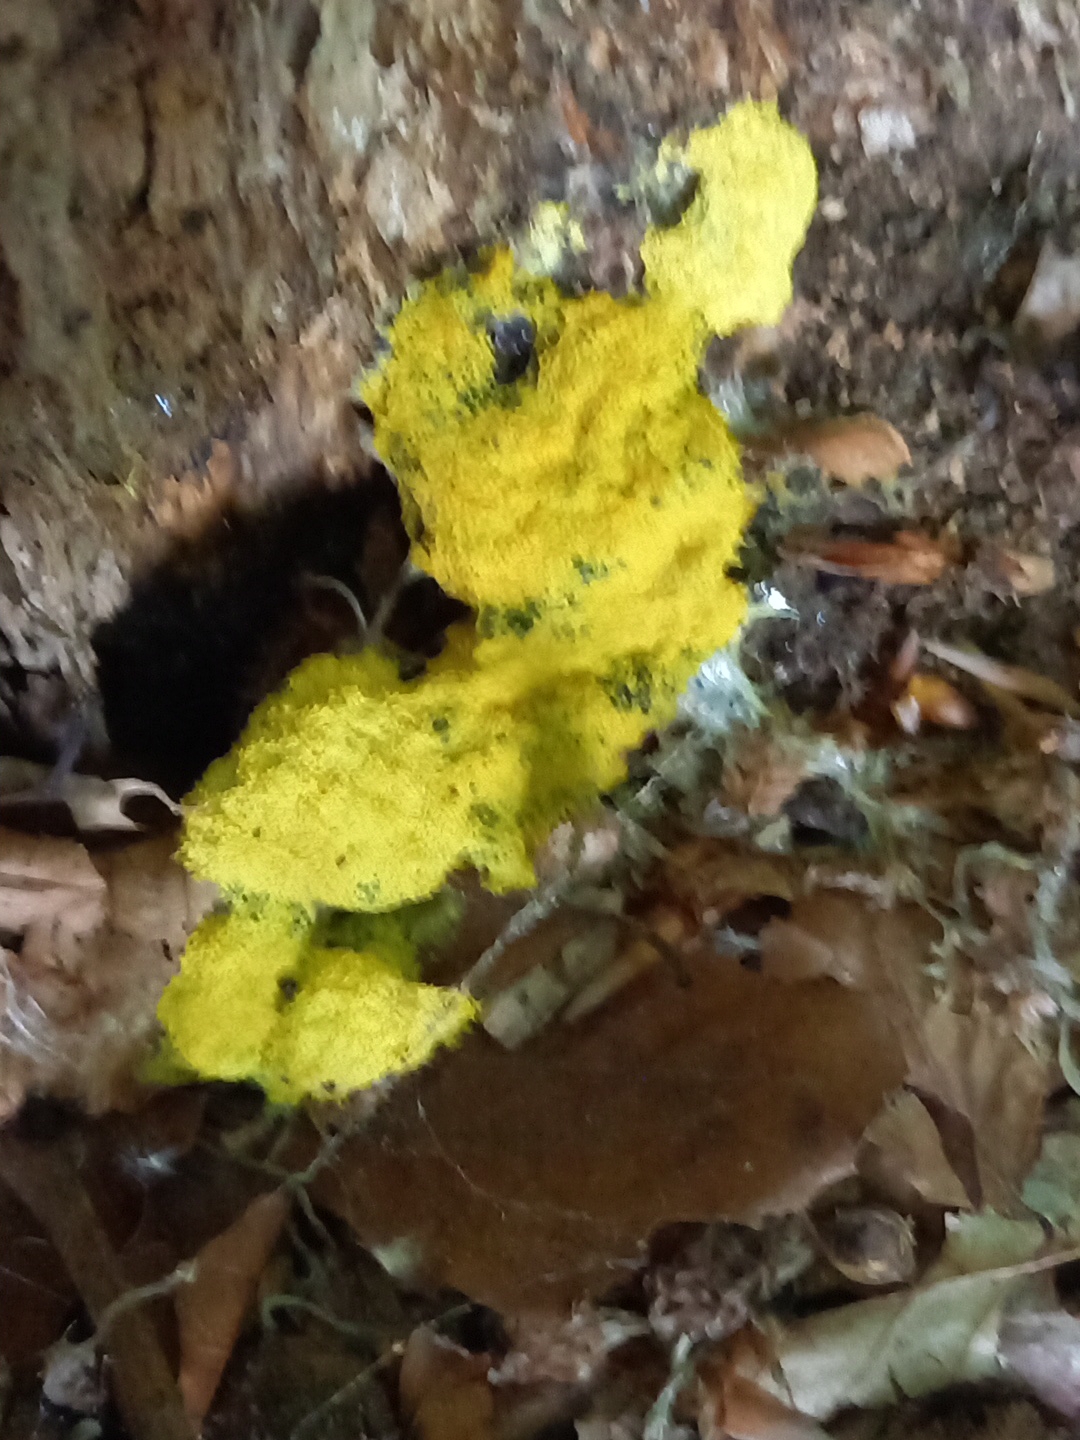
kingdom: Protozoa
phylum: Mycetozoa
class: Myxomycetes
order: Physarales
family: Physaraceae
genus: Fuligo
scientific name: Fuligo septica
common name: gul troldsmør
